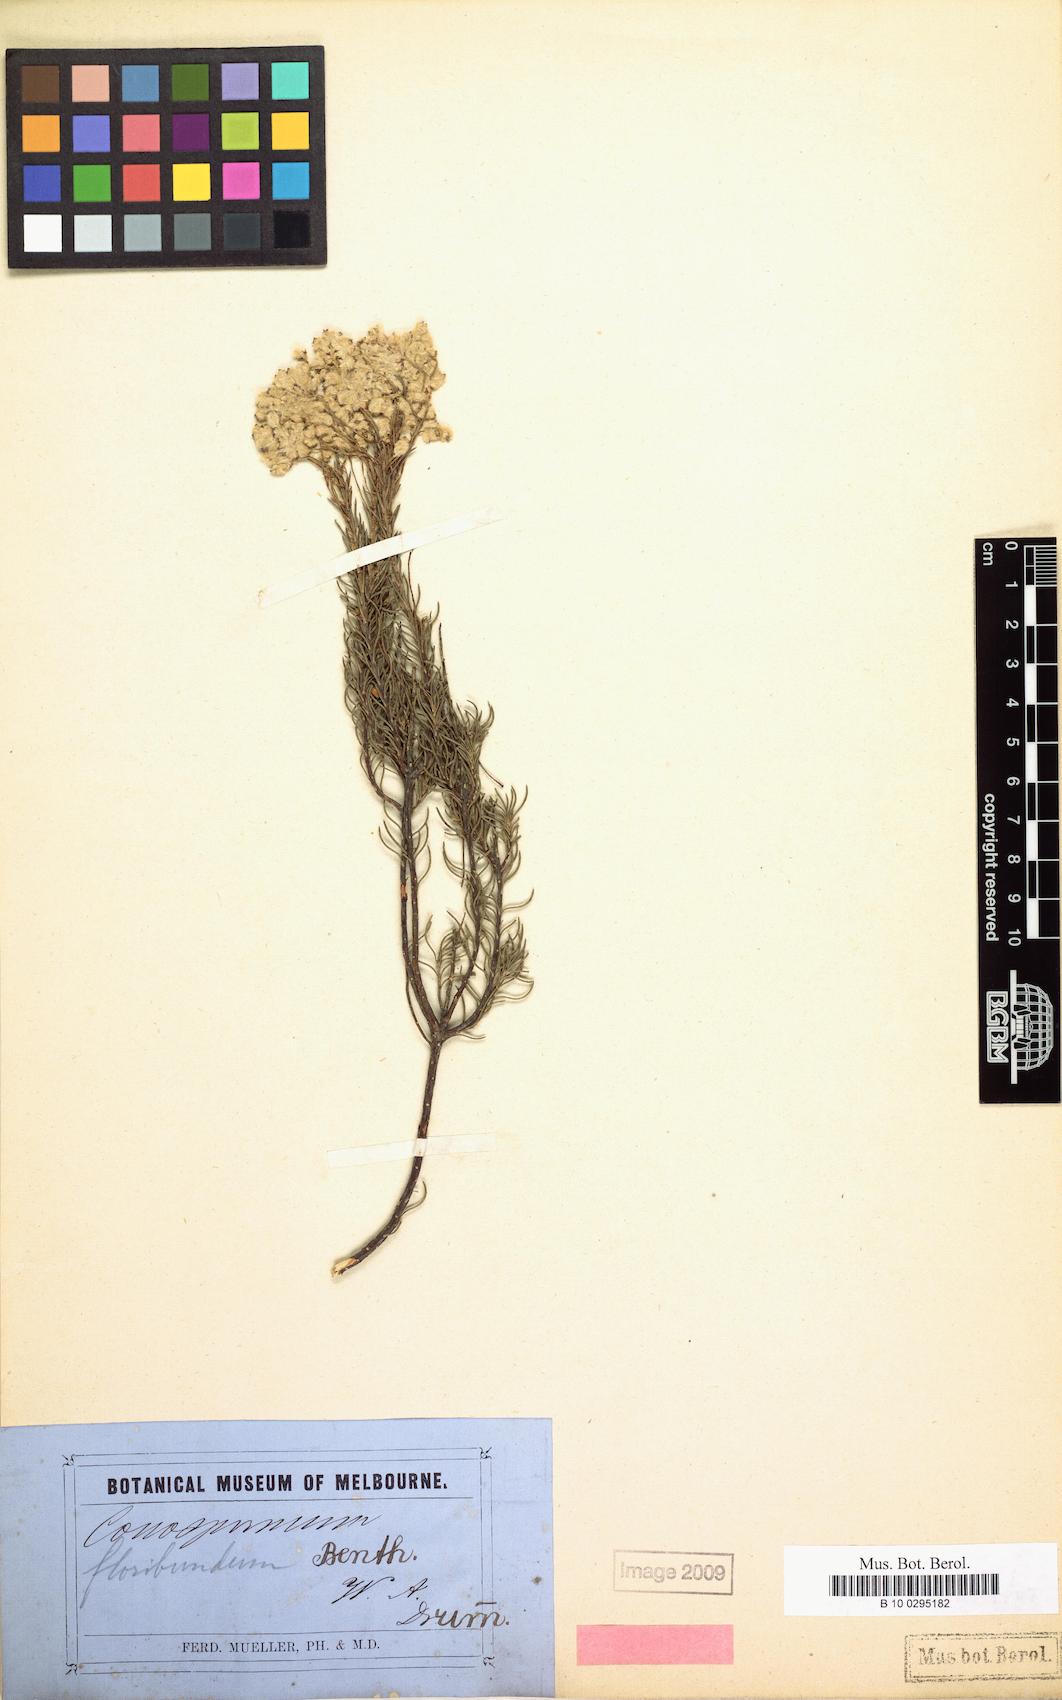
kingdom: Plantae
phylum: Tracheophyta
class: Magnoliopsida
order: Proteales
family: Proteaceae
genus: Conospermum
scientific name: Conospermum floribundum
